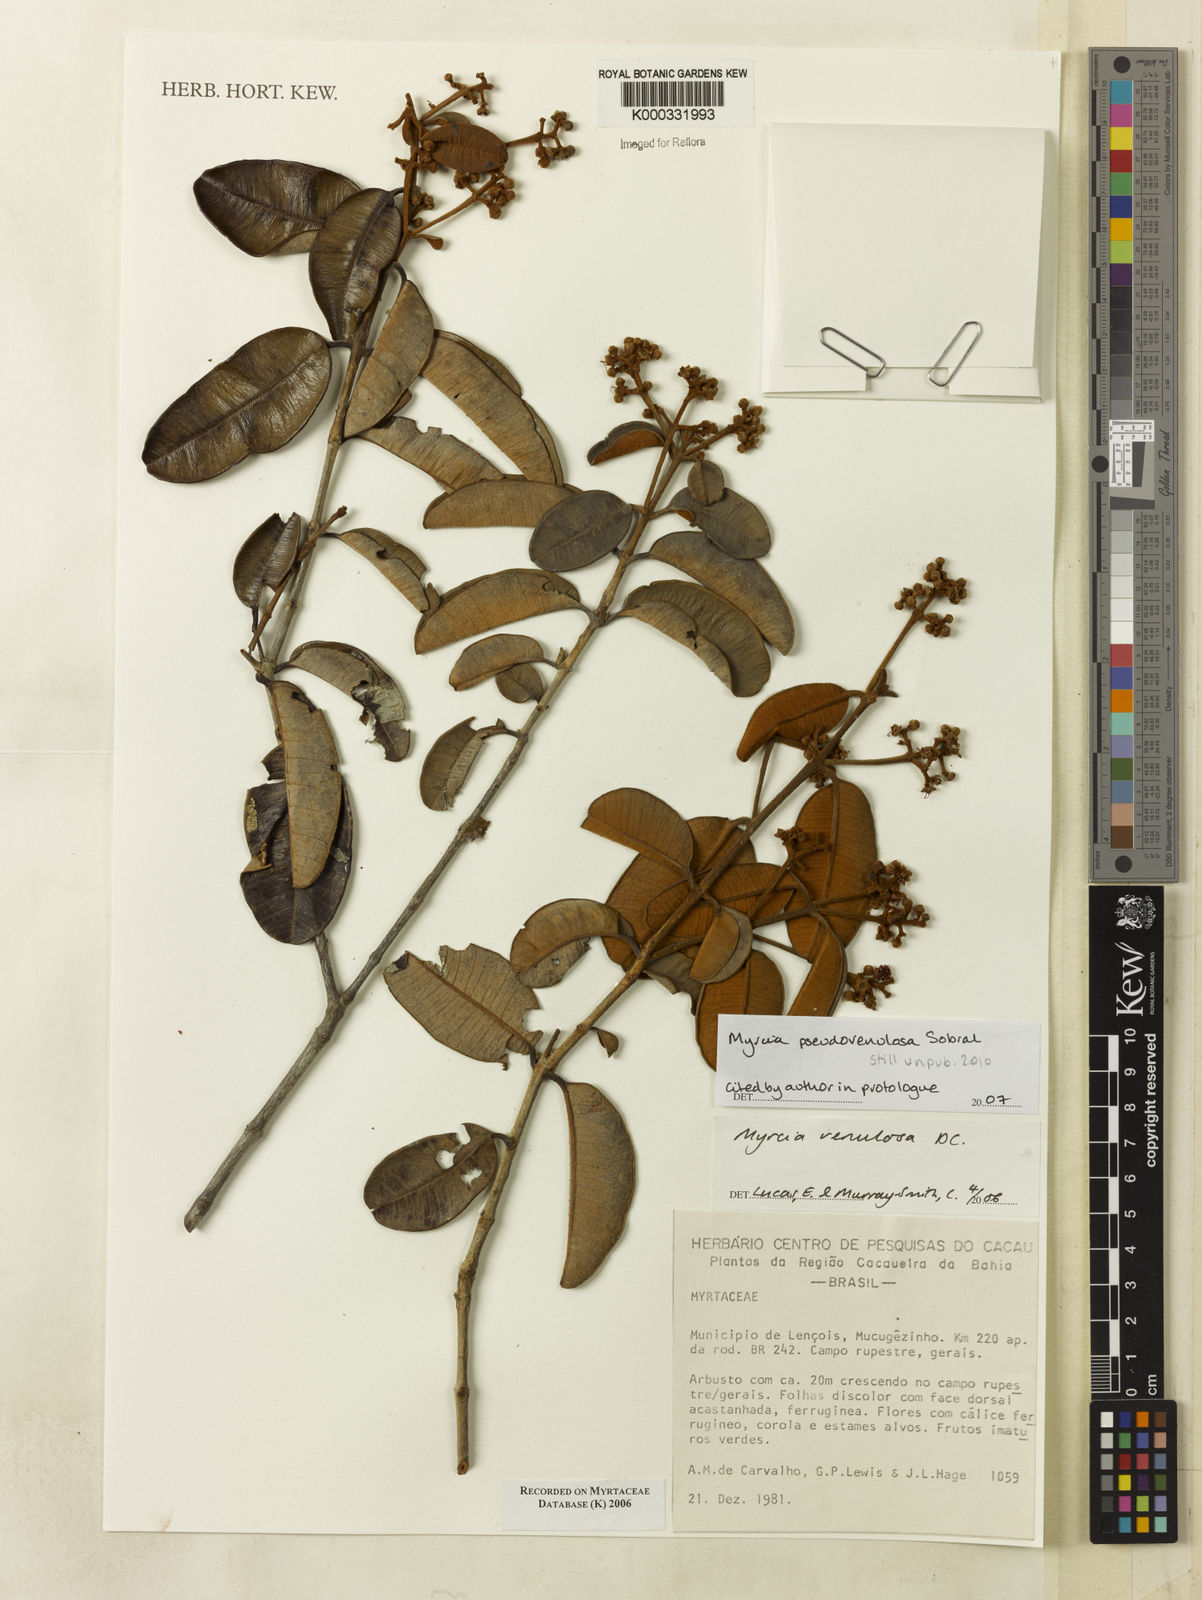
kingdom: Plantae
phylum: Tracheophyta
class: Magnoliopsida
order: Myrtales
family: Myrtaceae
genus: Myrcia
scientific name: Myrcia venulosa
